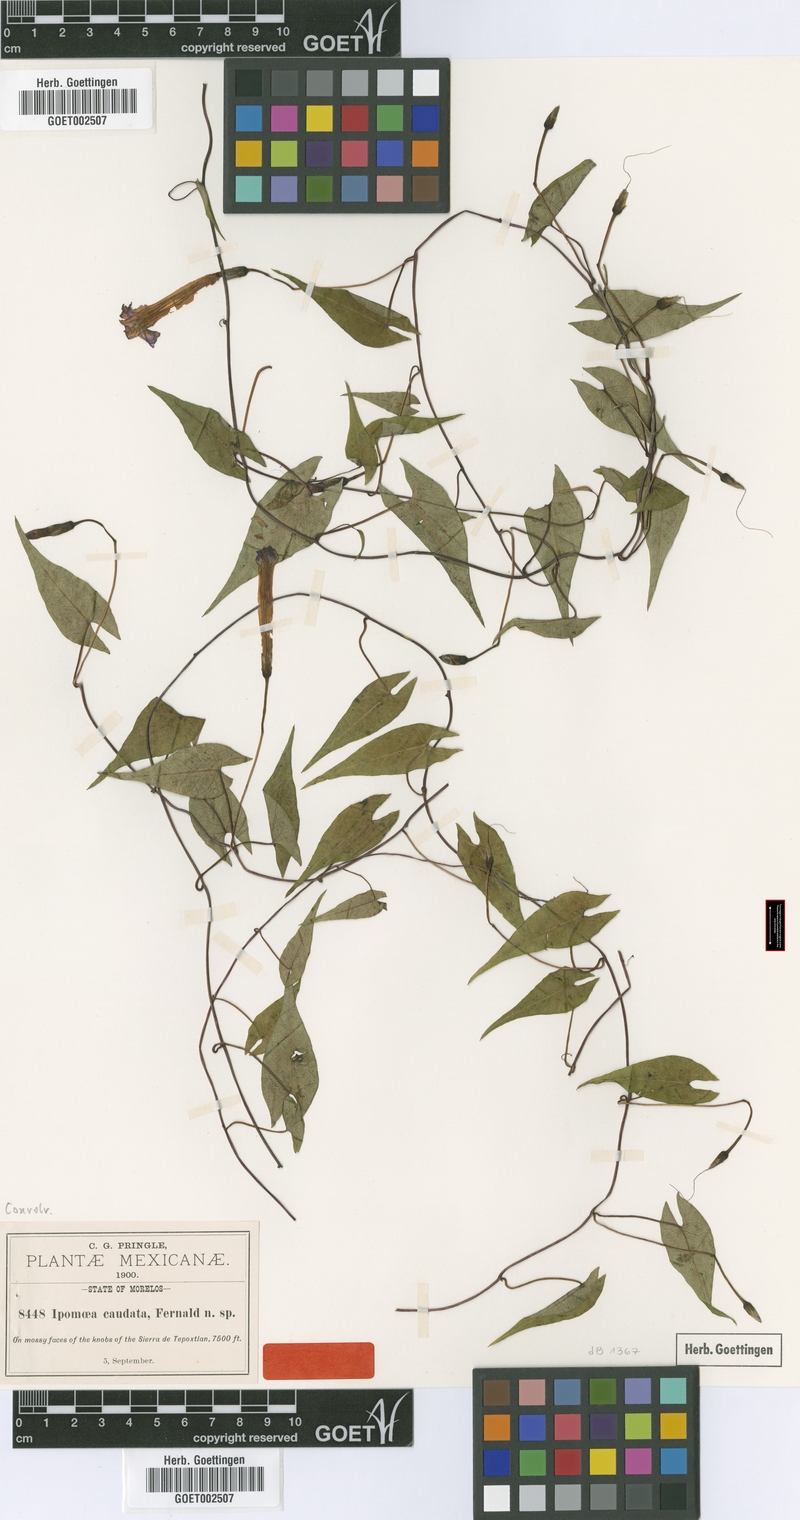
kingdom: Plantae
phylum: Tracheophyta
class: Magnoliopsida
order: Solanales
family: Convolvulaceae
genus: Ipomoea
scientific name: Ipomoea caudata
